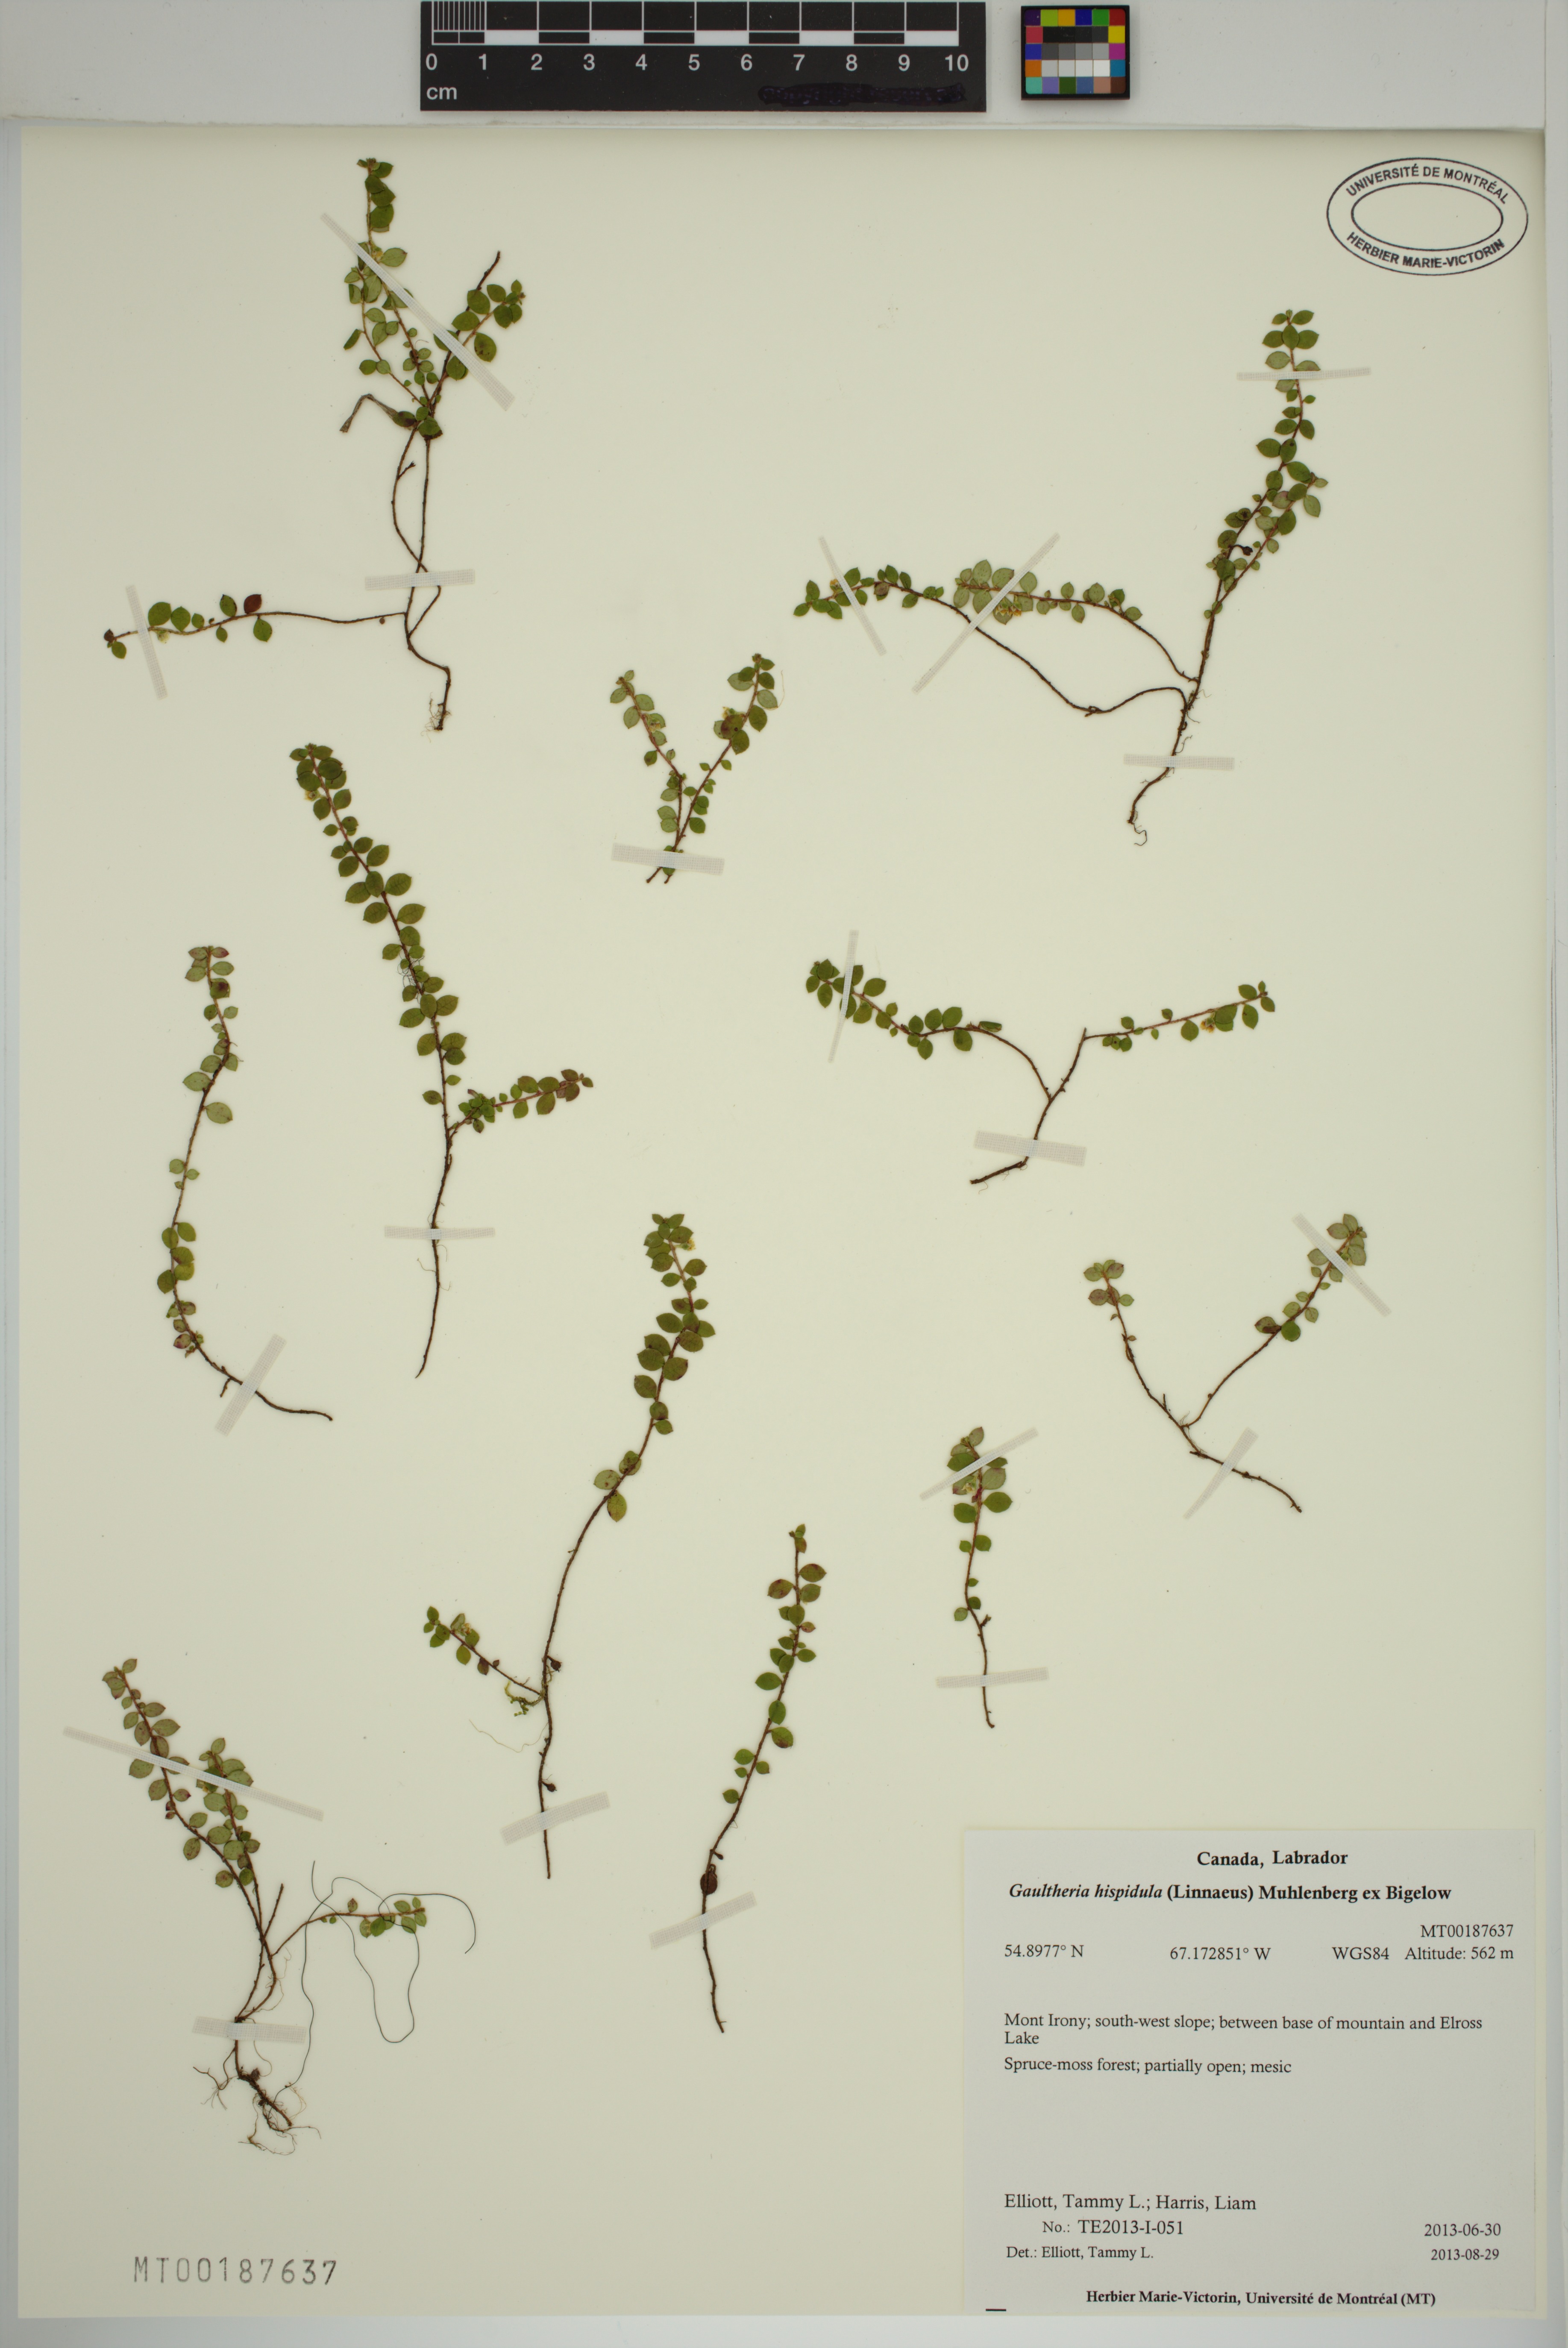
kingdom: Plantae
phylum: Tracheophyta
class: Magnoliopsida
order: Ericales
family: Ericaceae
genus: Gaultheria
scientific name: Gaultheria hispidula
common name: Cancer wintergreen
